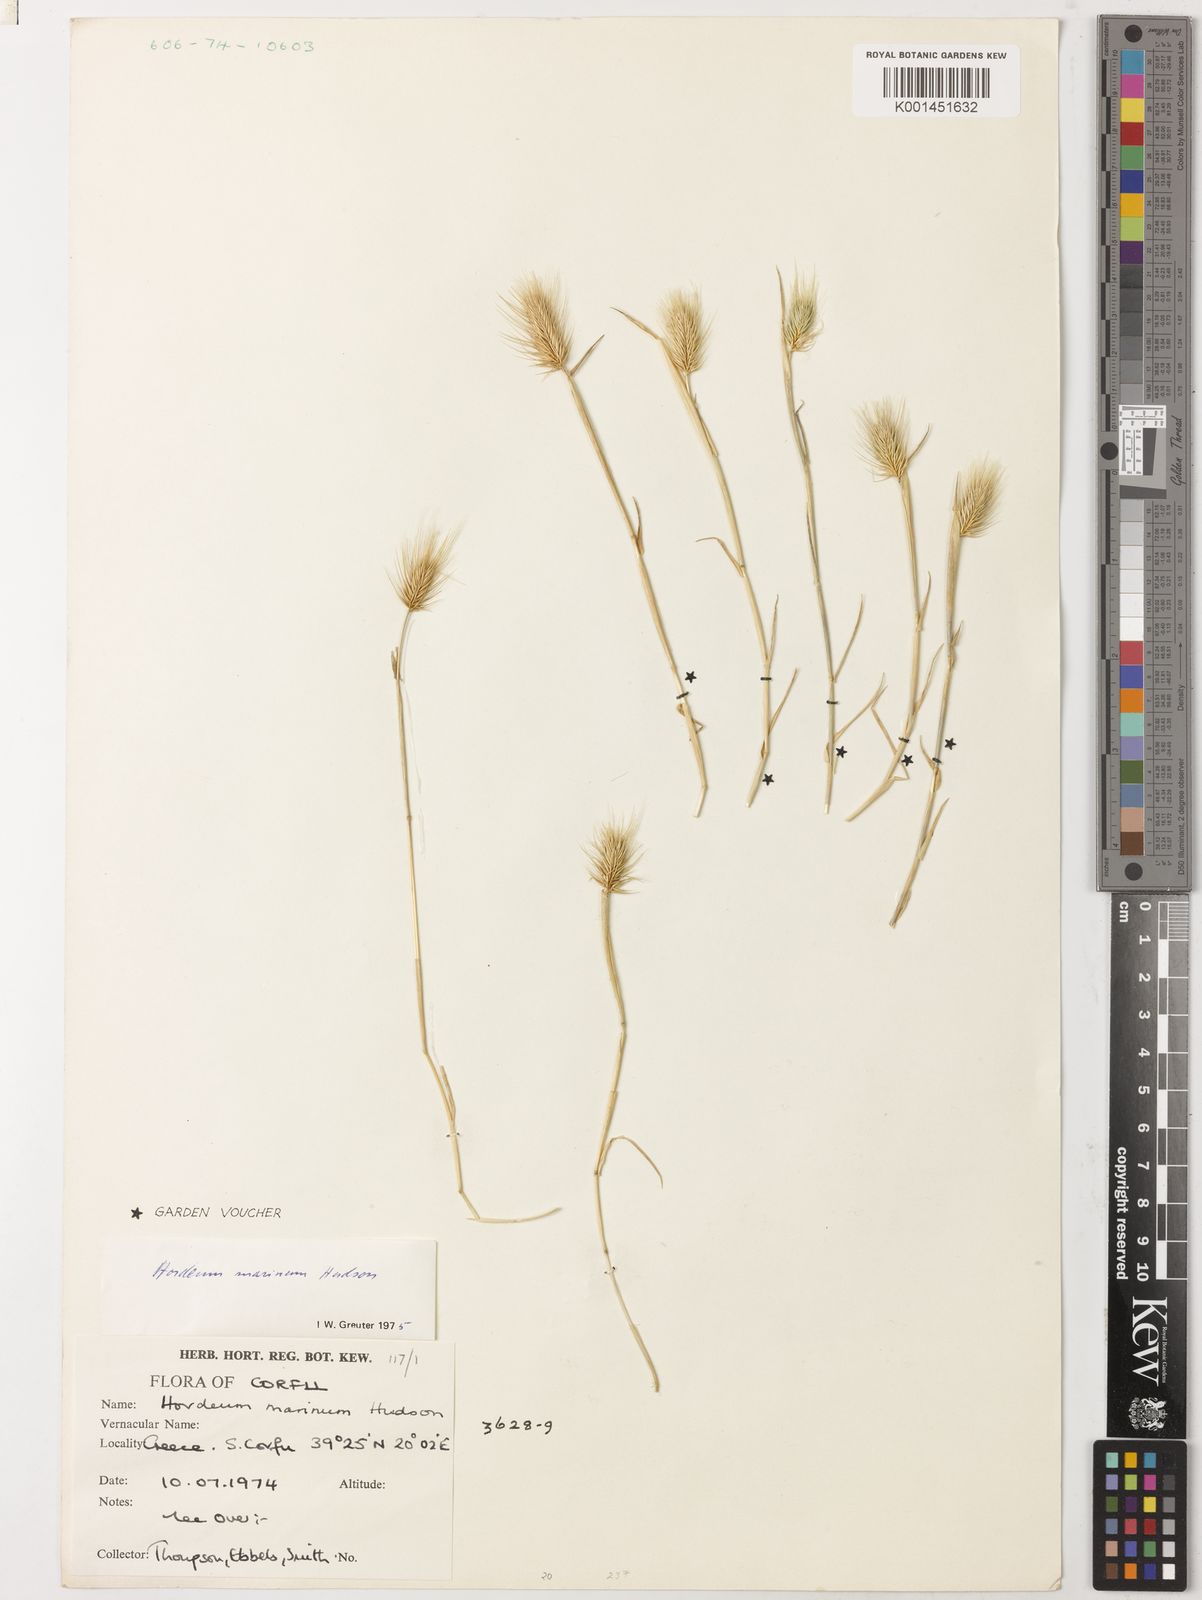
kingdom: Plantae
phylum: Tracheophyta
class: Liliopsida
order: Poales
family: Poaceae
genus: Hordeum
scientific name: Hordeum marinum
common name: Sea barley
